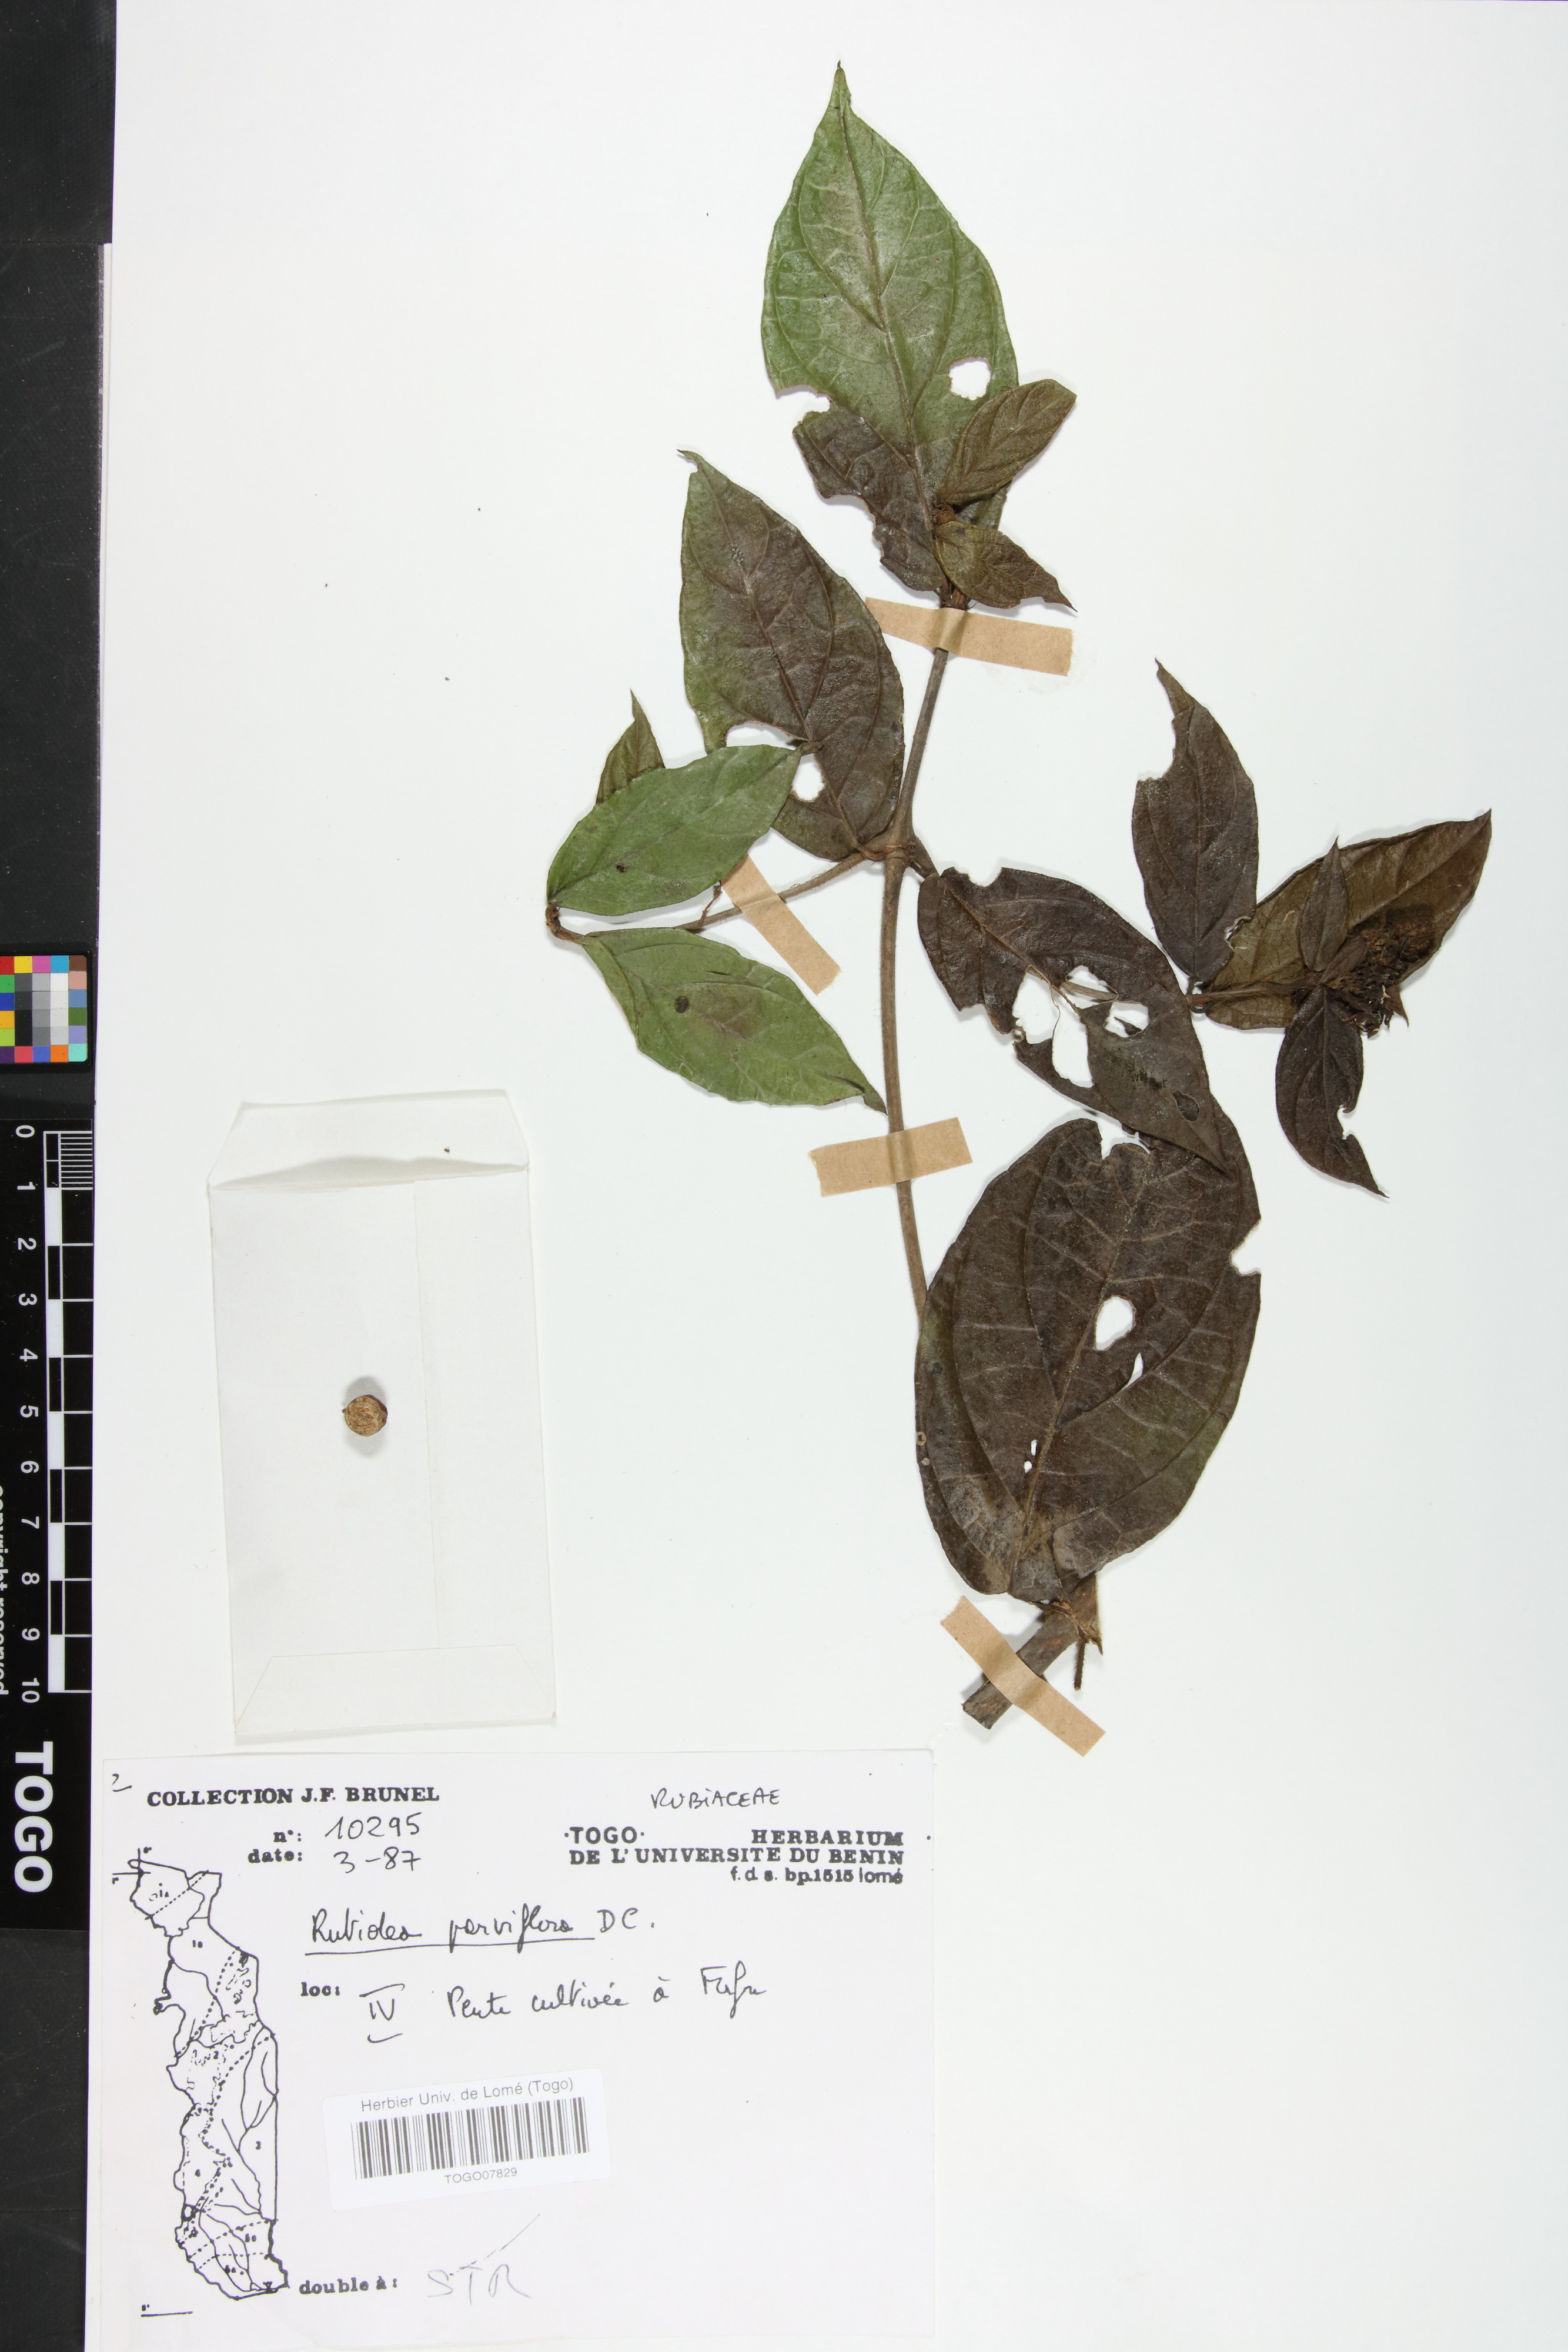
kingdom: Plantae
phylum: Tracheophyta
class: Magnoliopsida
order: Gentianales
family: Rubiaceae
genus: Rutidea
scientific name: Rutidea parviflora
